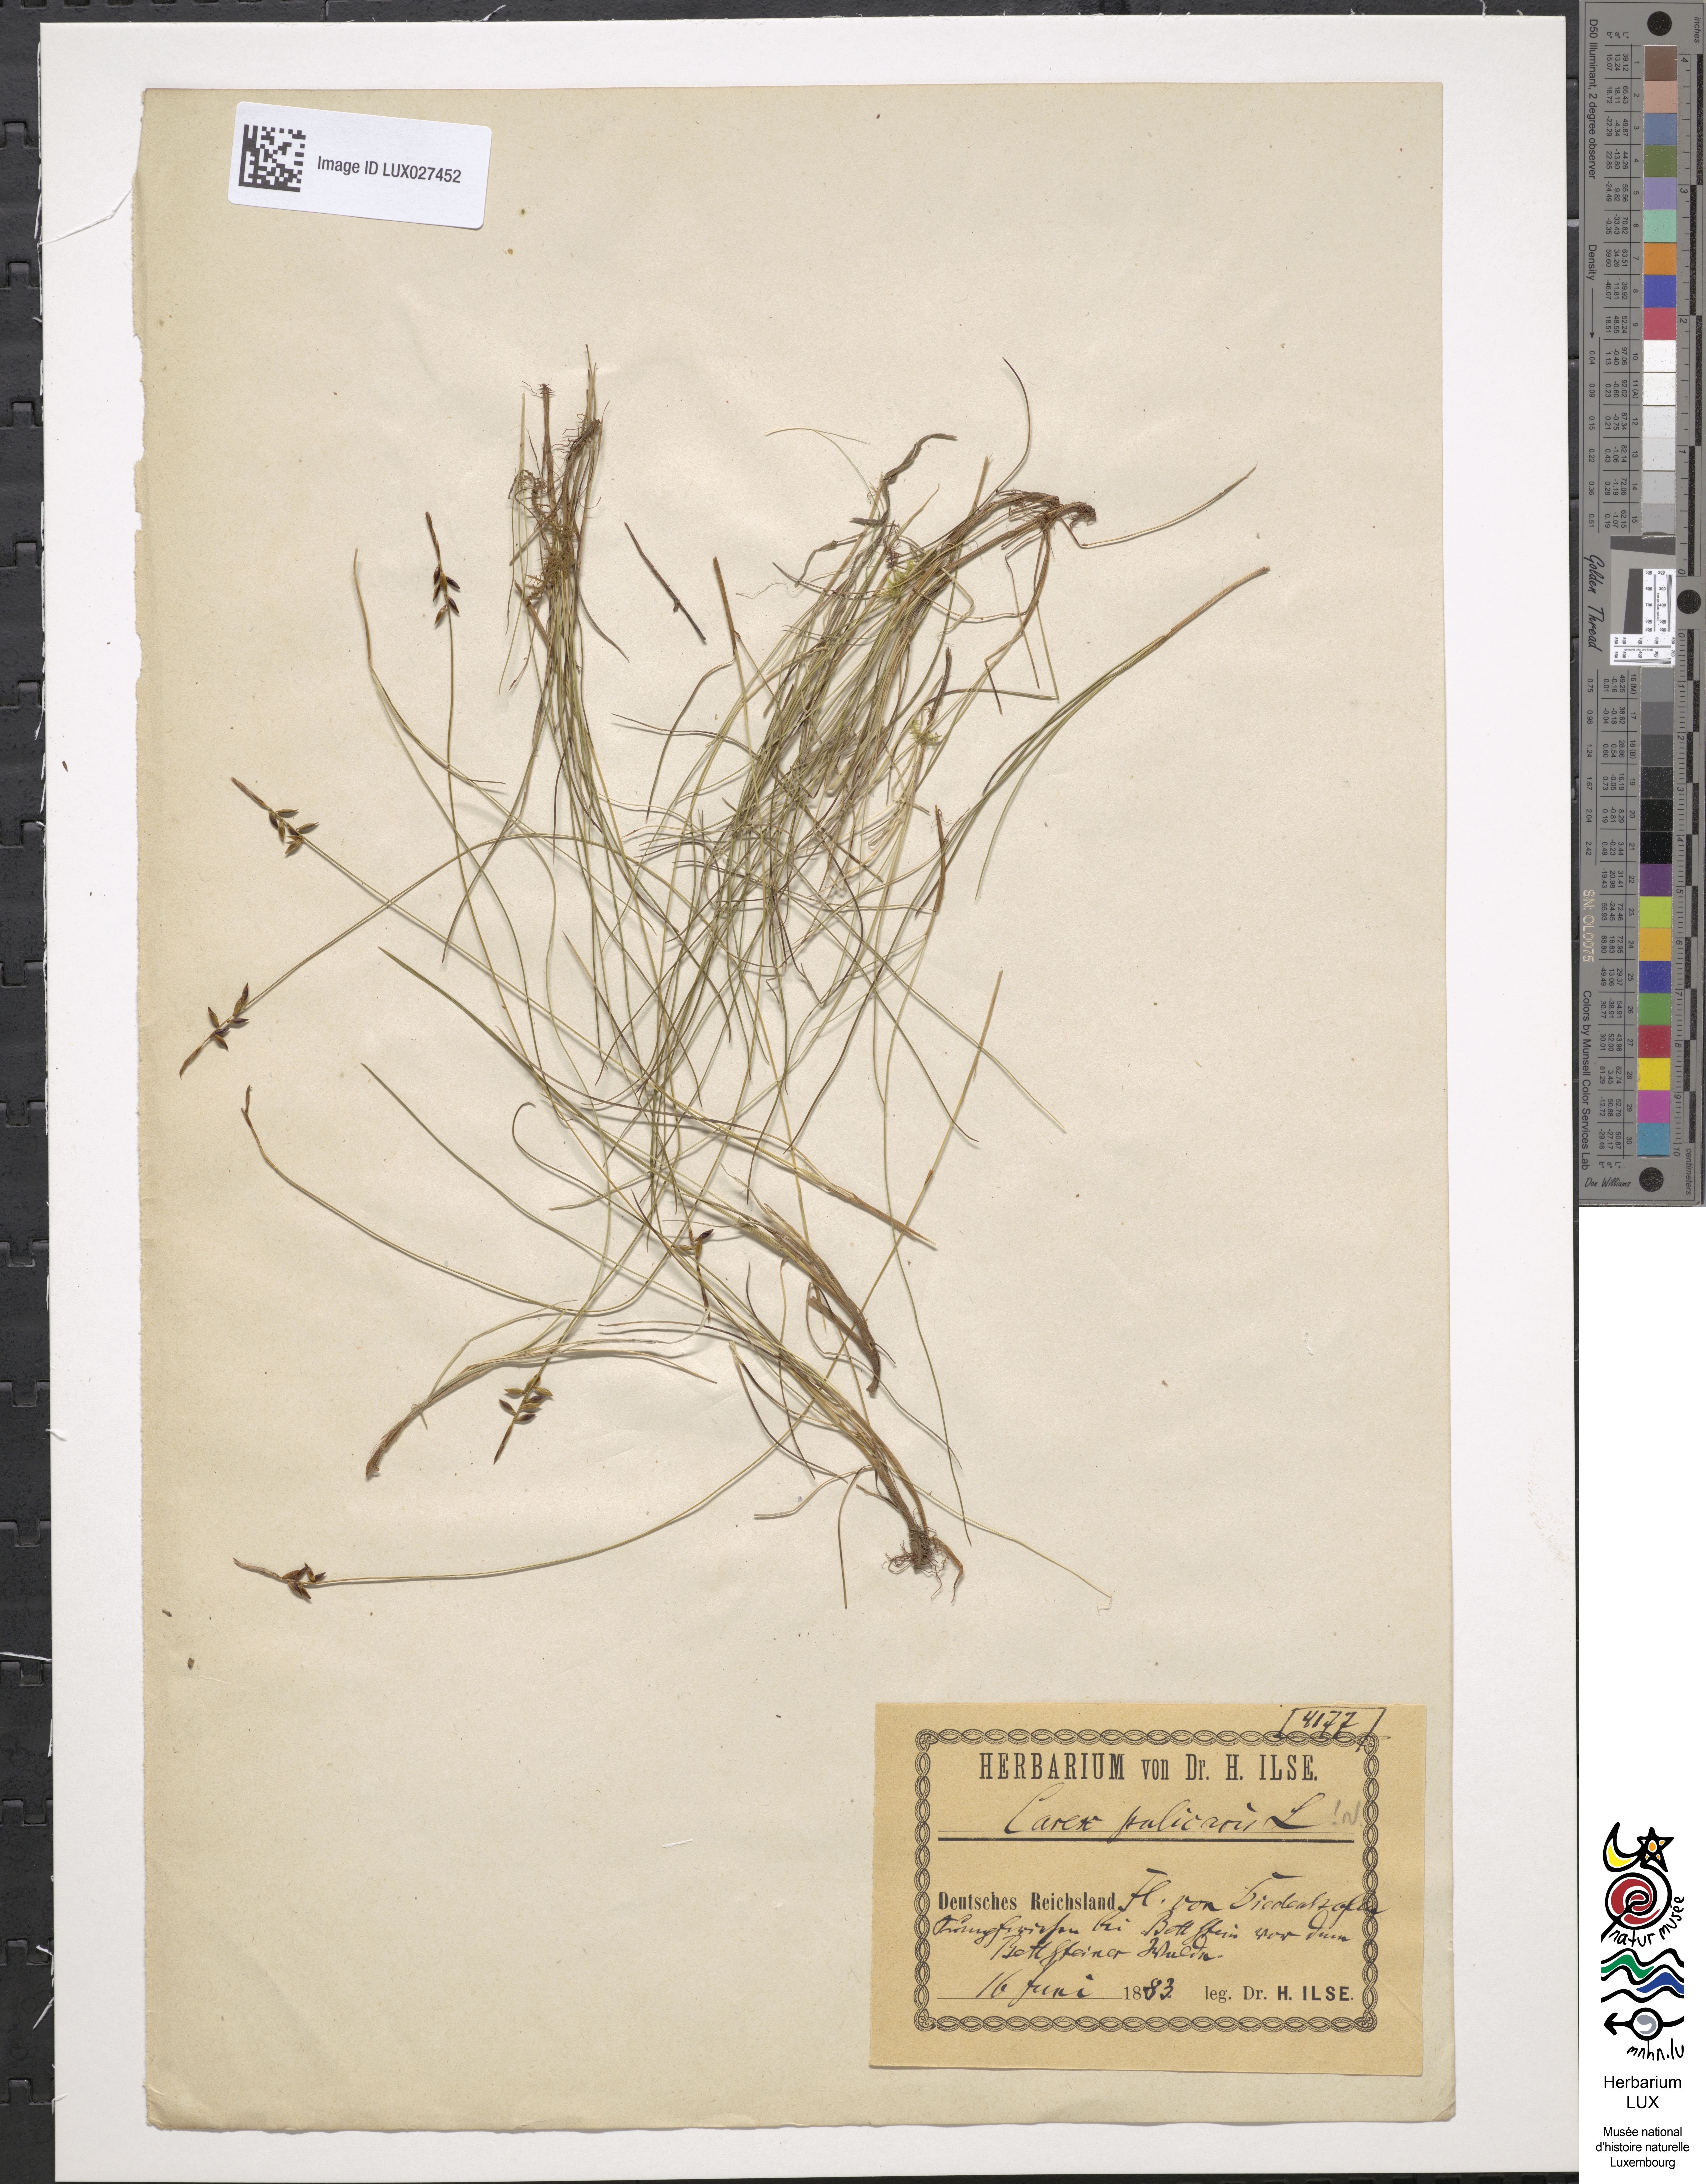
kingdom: Plantae
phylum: Tracheophyta
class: Liliopsida
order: Poales
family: Cyperaceae
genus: Carex
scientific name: Carex pulicaris
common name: Flea sedge
